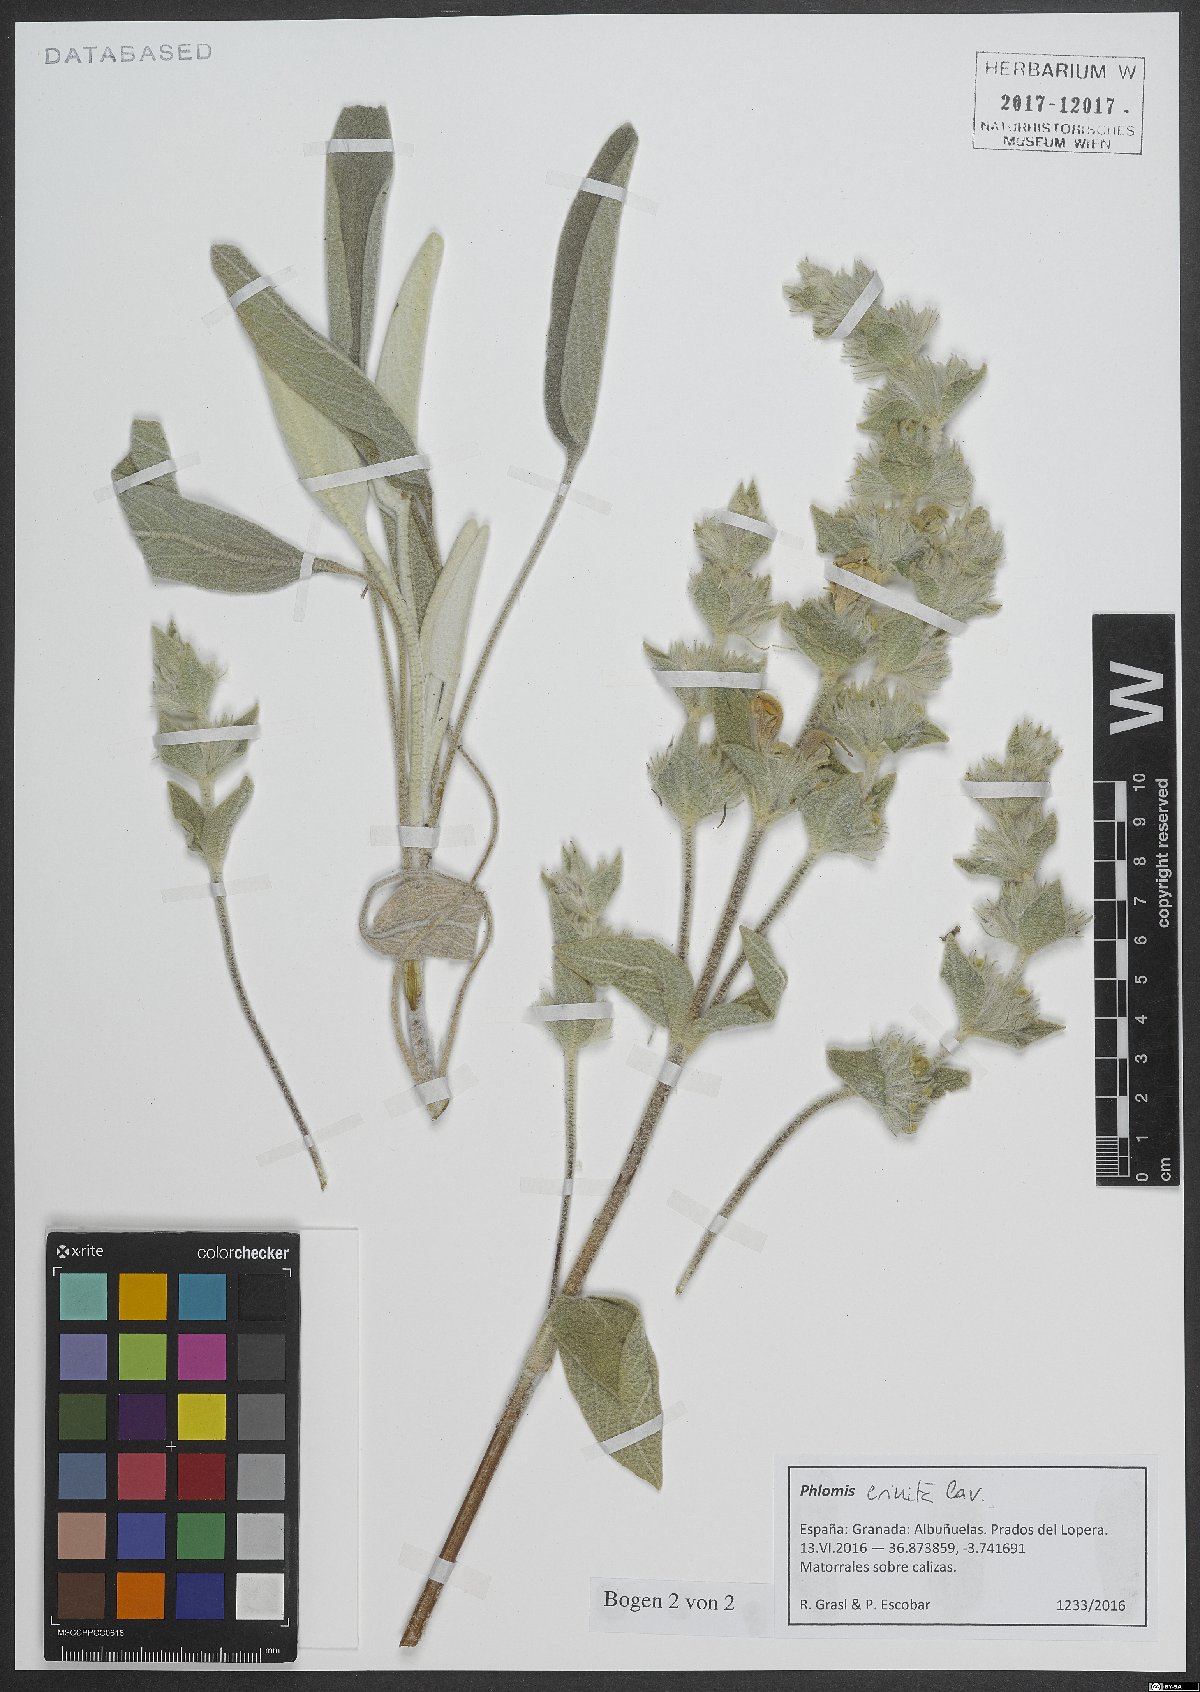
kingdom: Plantae
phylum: Tracheophyta
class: Magnoliopsida
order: Lamiales
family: Lamiaceae
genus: Phlomis
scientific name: Phlomis crinita
